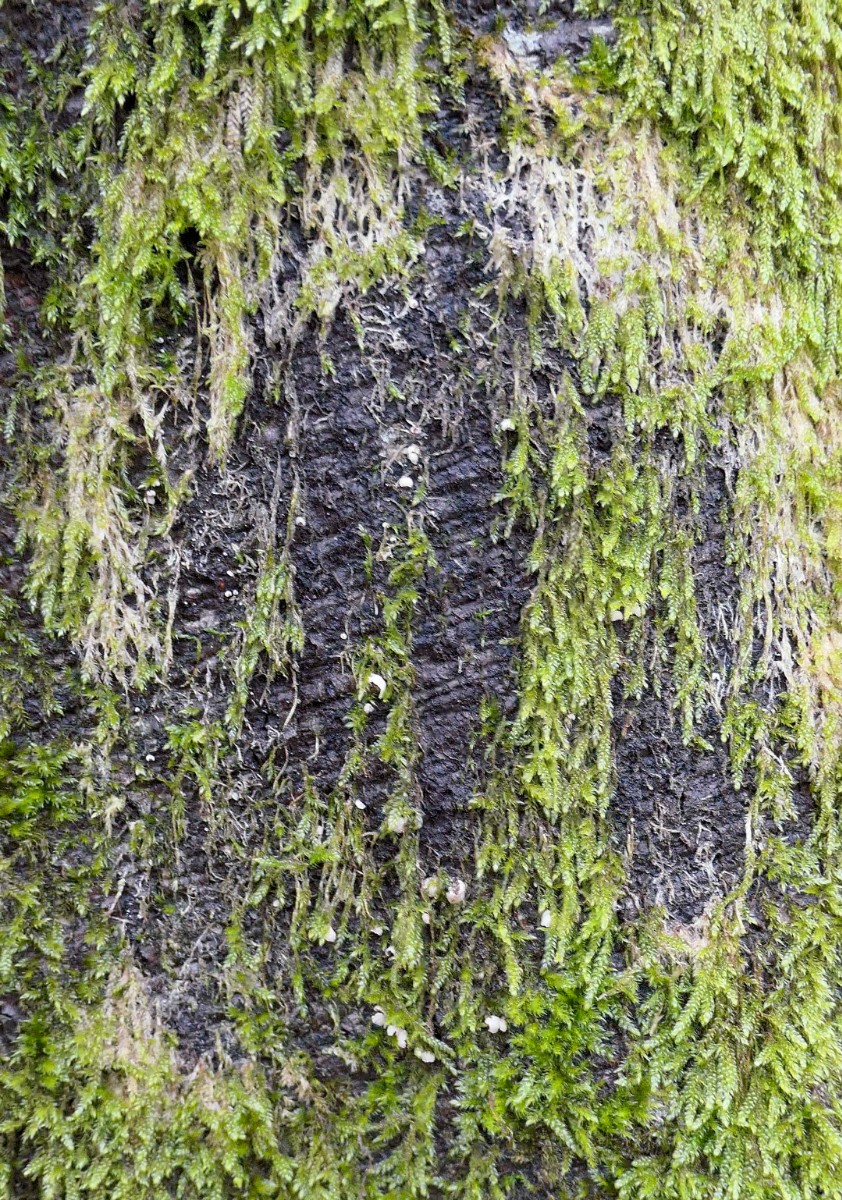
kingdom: Fungi
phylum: Basidiomycota
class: Agaricomycetes
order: Agaricales
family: Chromocyphellaceae
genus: Chromocyphella
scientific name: Chromocyphella muscicola
